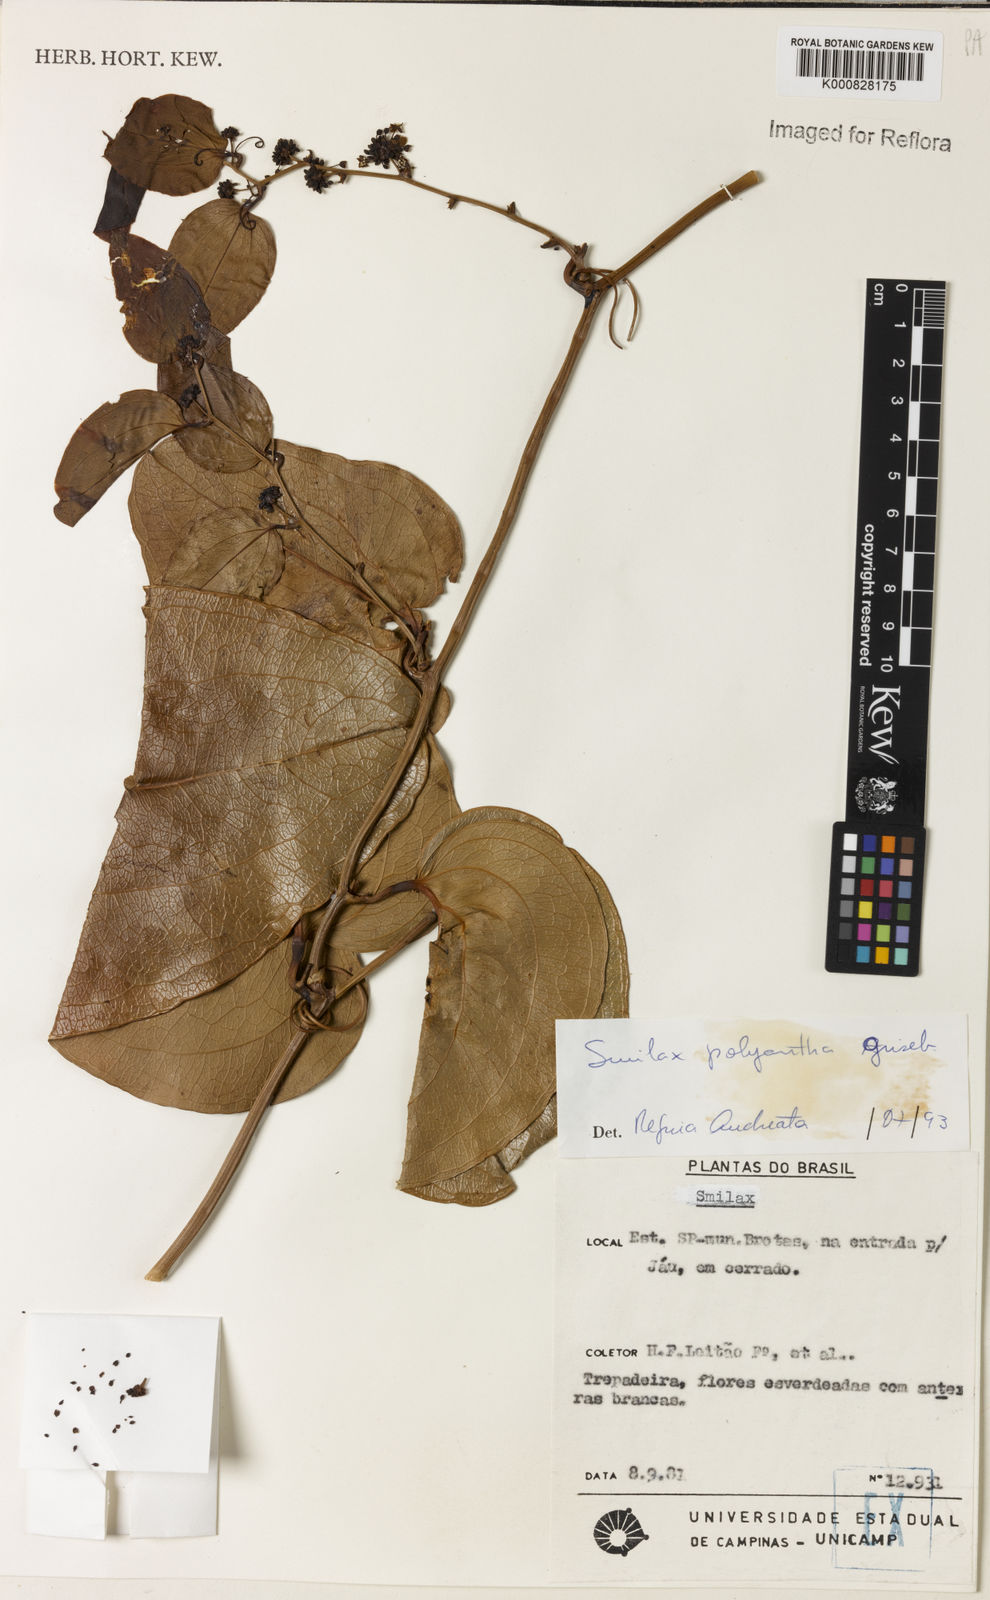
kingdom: Plantae
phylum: Tracheophyta
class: Liliopsida
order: Liliales
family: Smilacaceae
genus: Smilax
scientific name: Smilax polyantha
